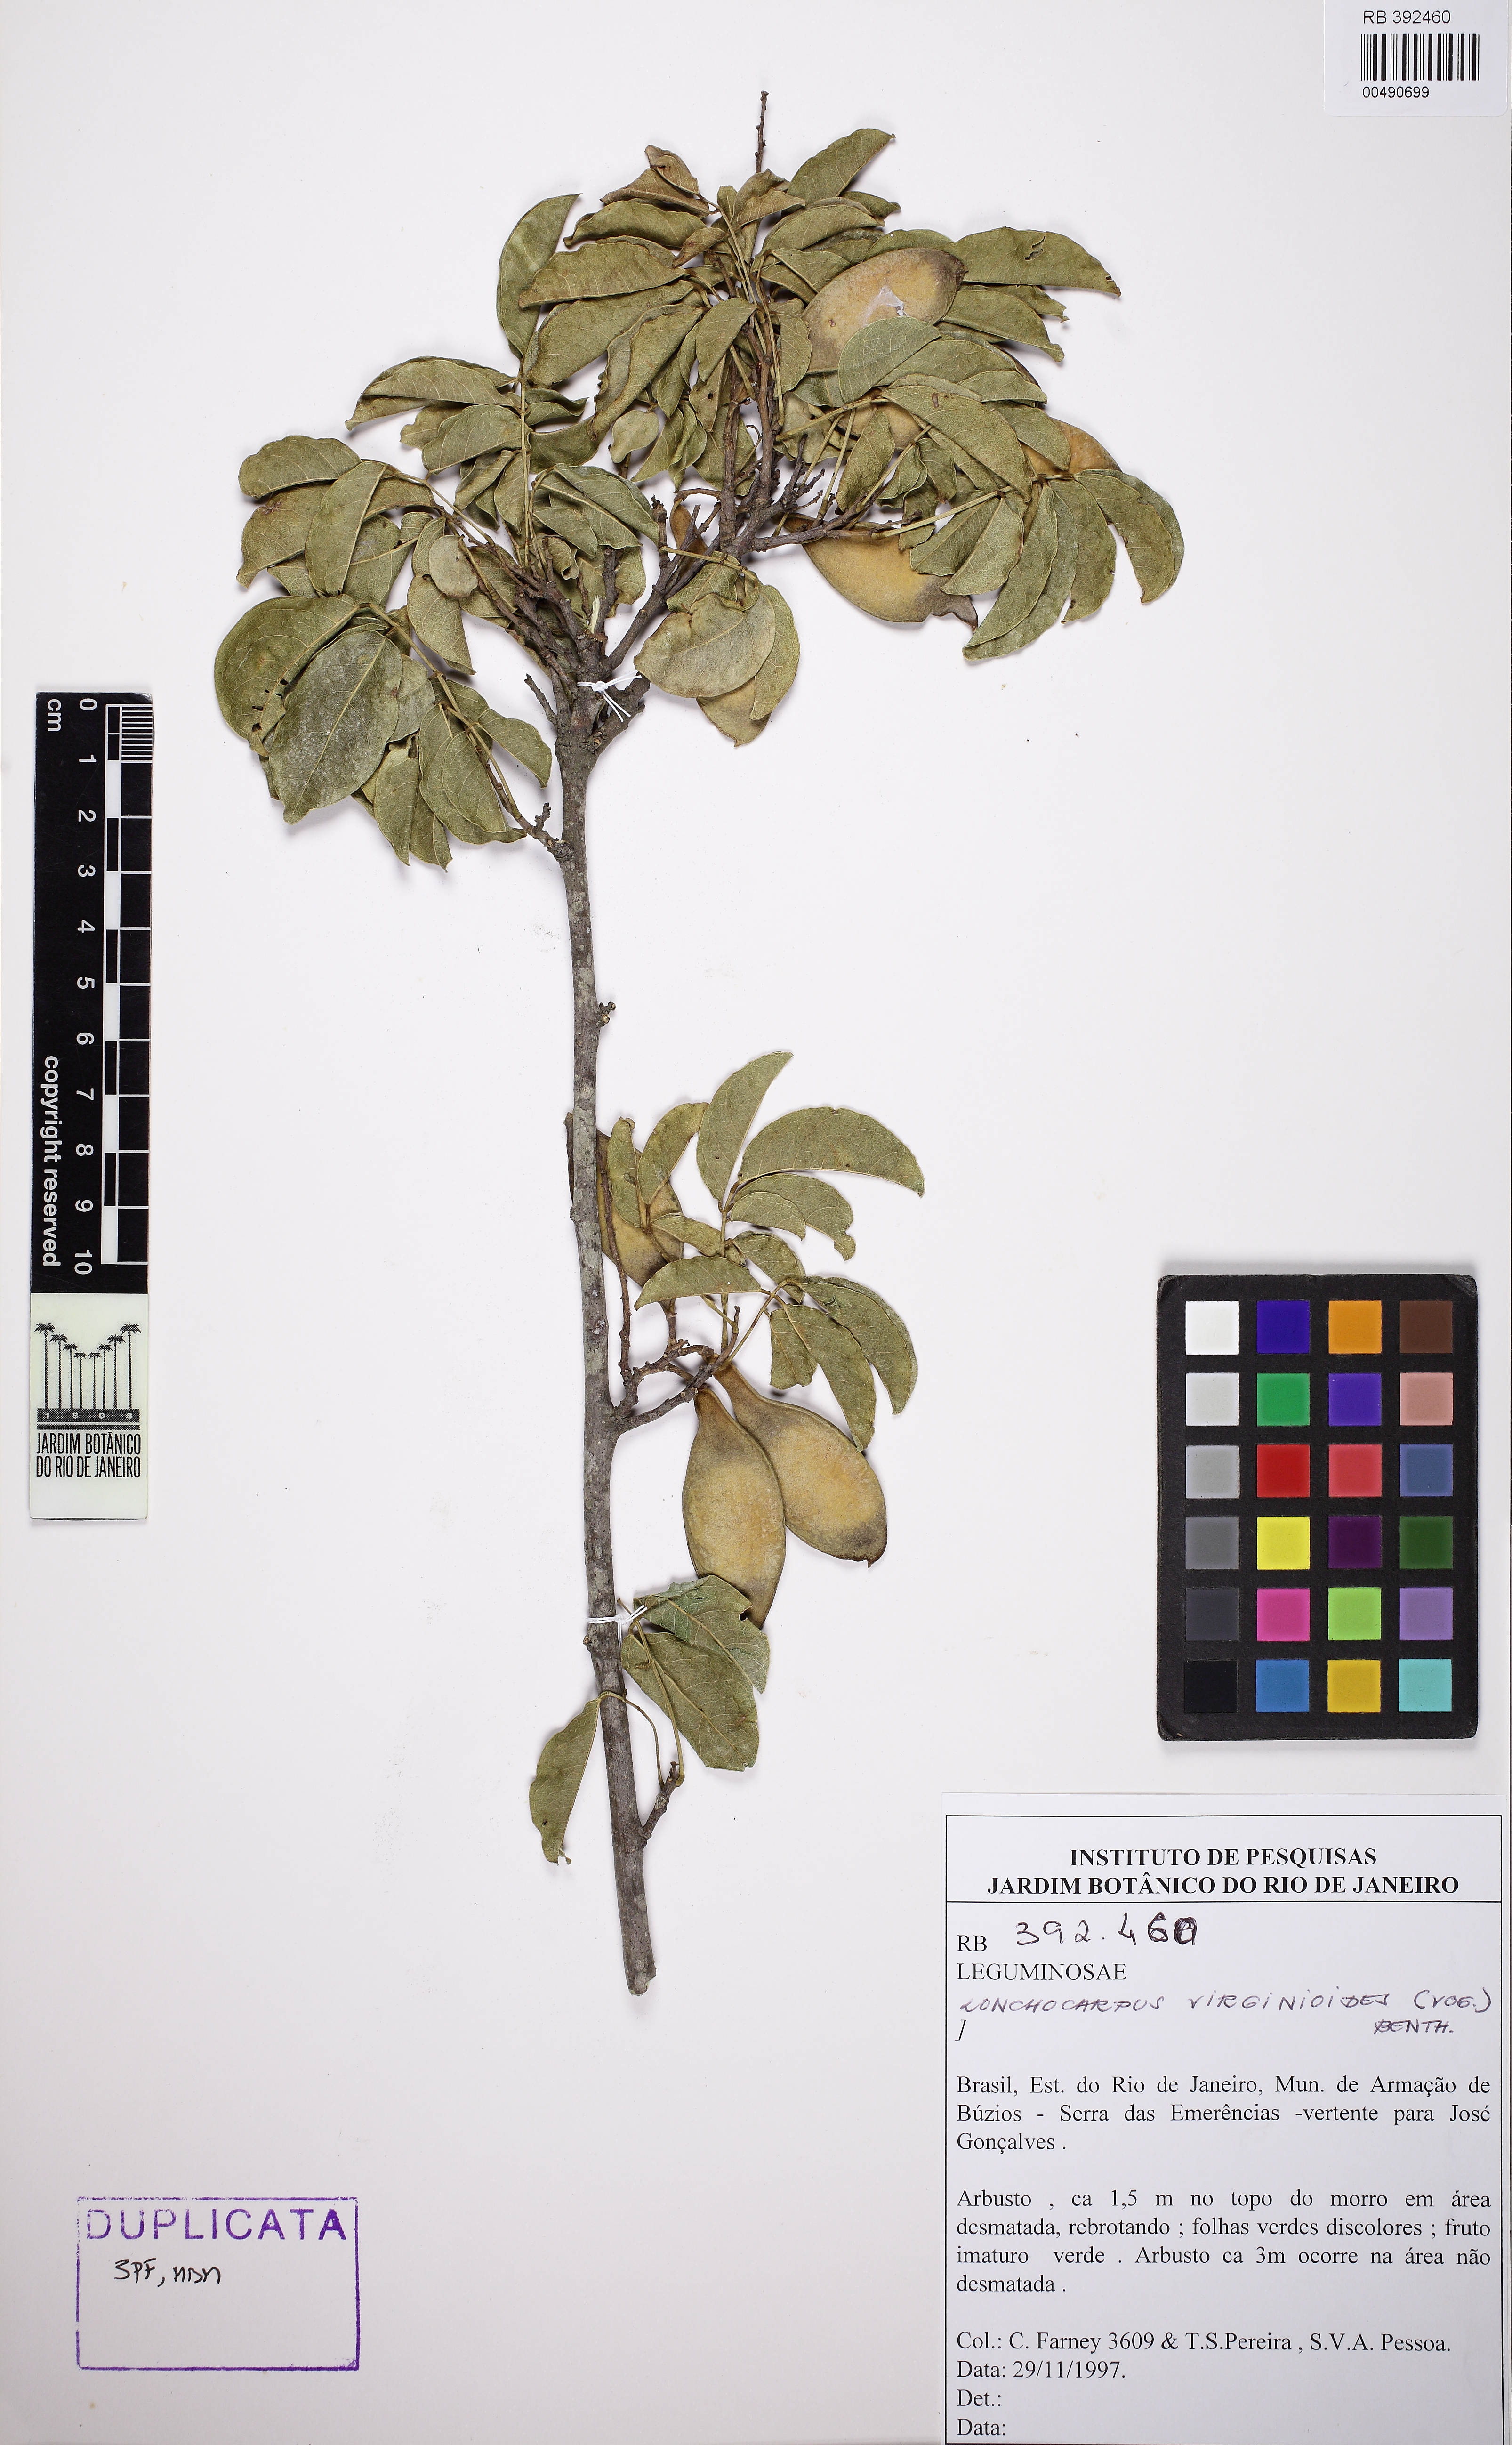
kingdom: Plantae
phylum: Tracheophyta
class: Magnoliopsida
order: Fabales
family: Fabaceae
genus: Muellera
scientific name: Muellera virgilioides
